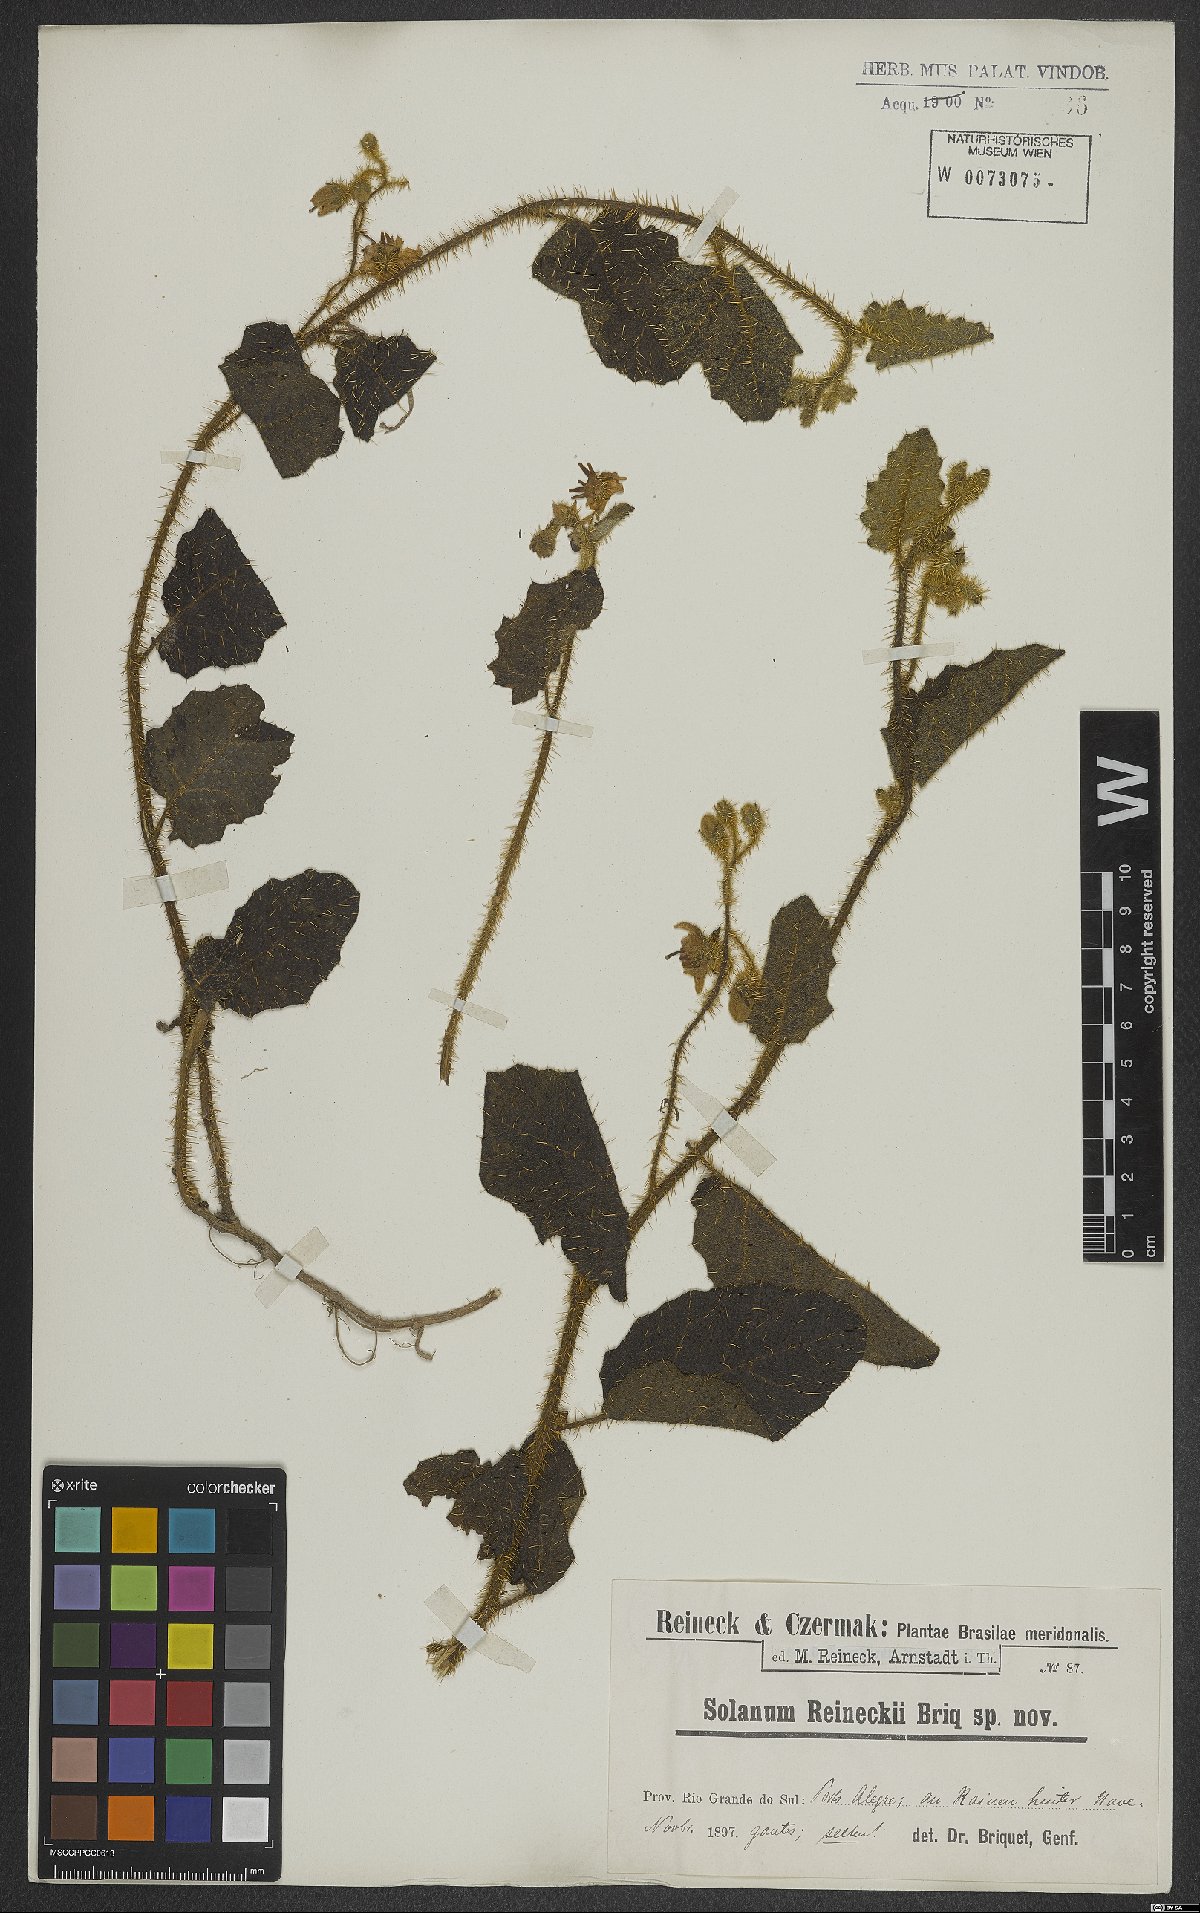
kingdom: Plantae
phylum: Tracheophyta
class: Magnoliopsida
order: Solanales
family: Solanaceae
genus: Solanum
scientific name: Solanum reineckii
